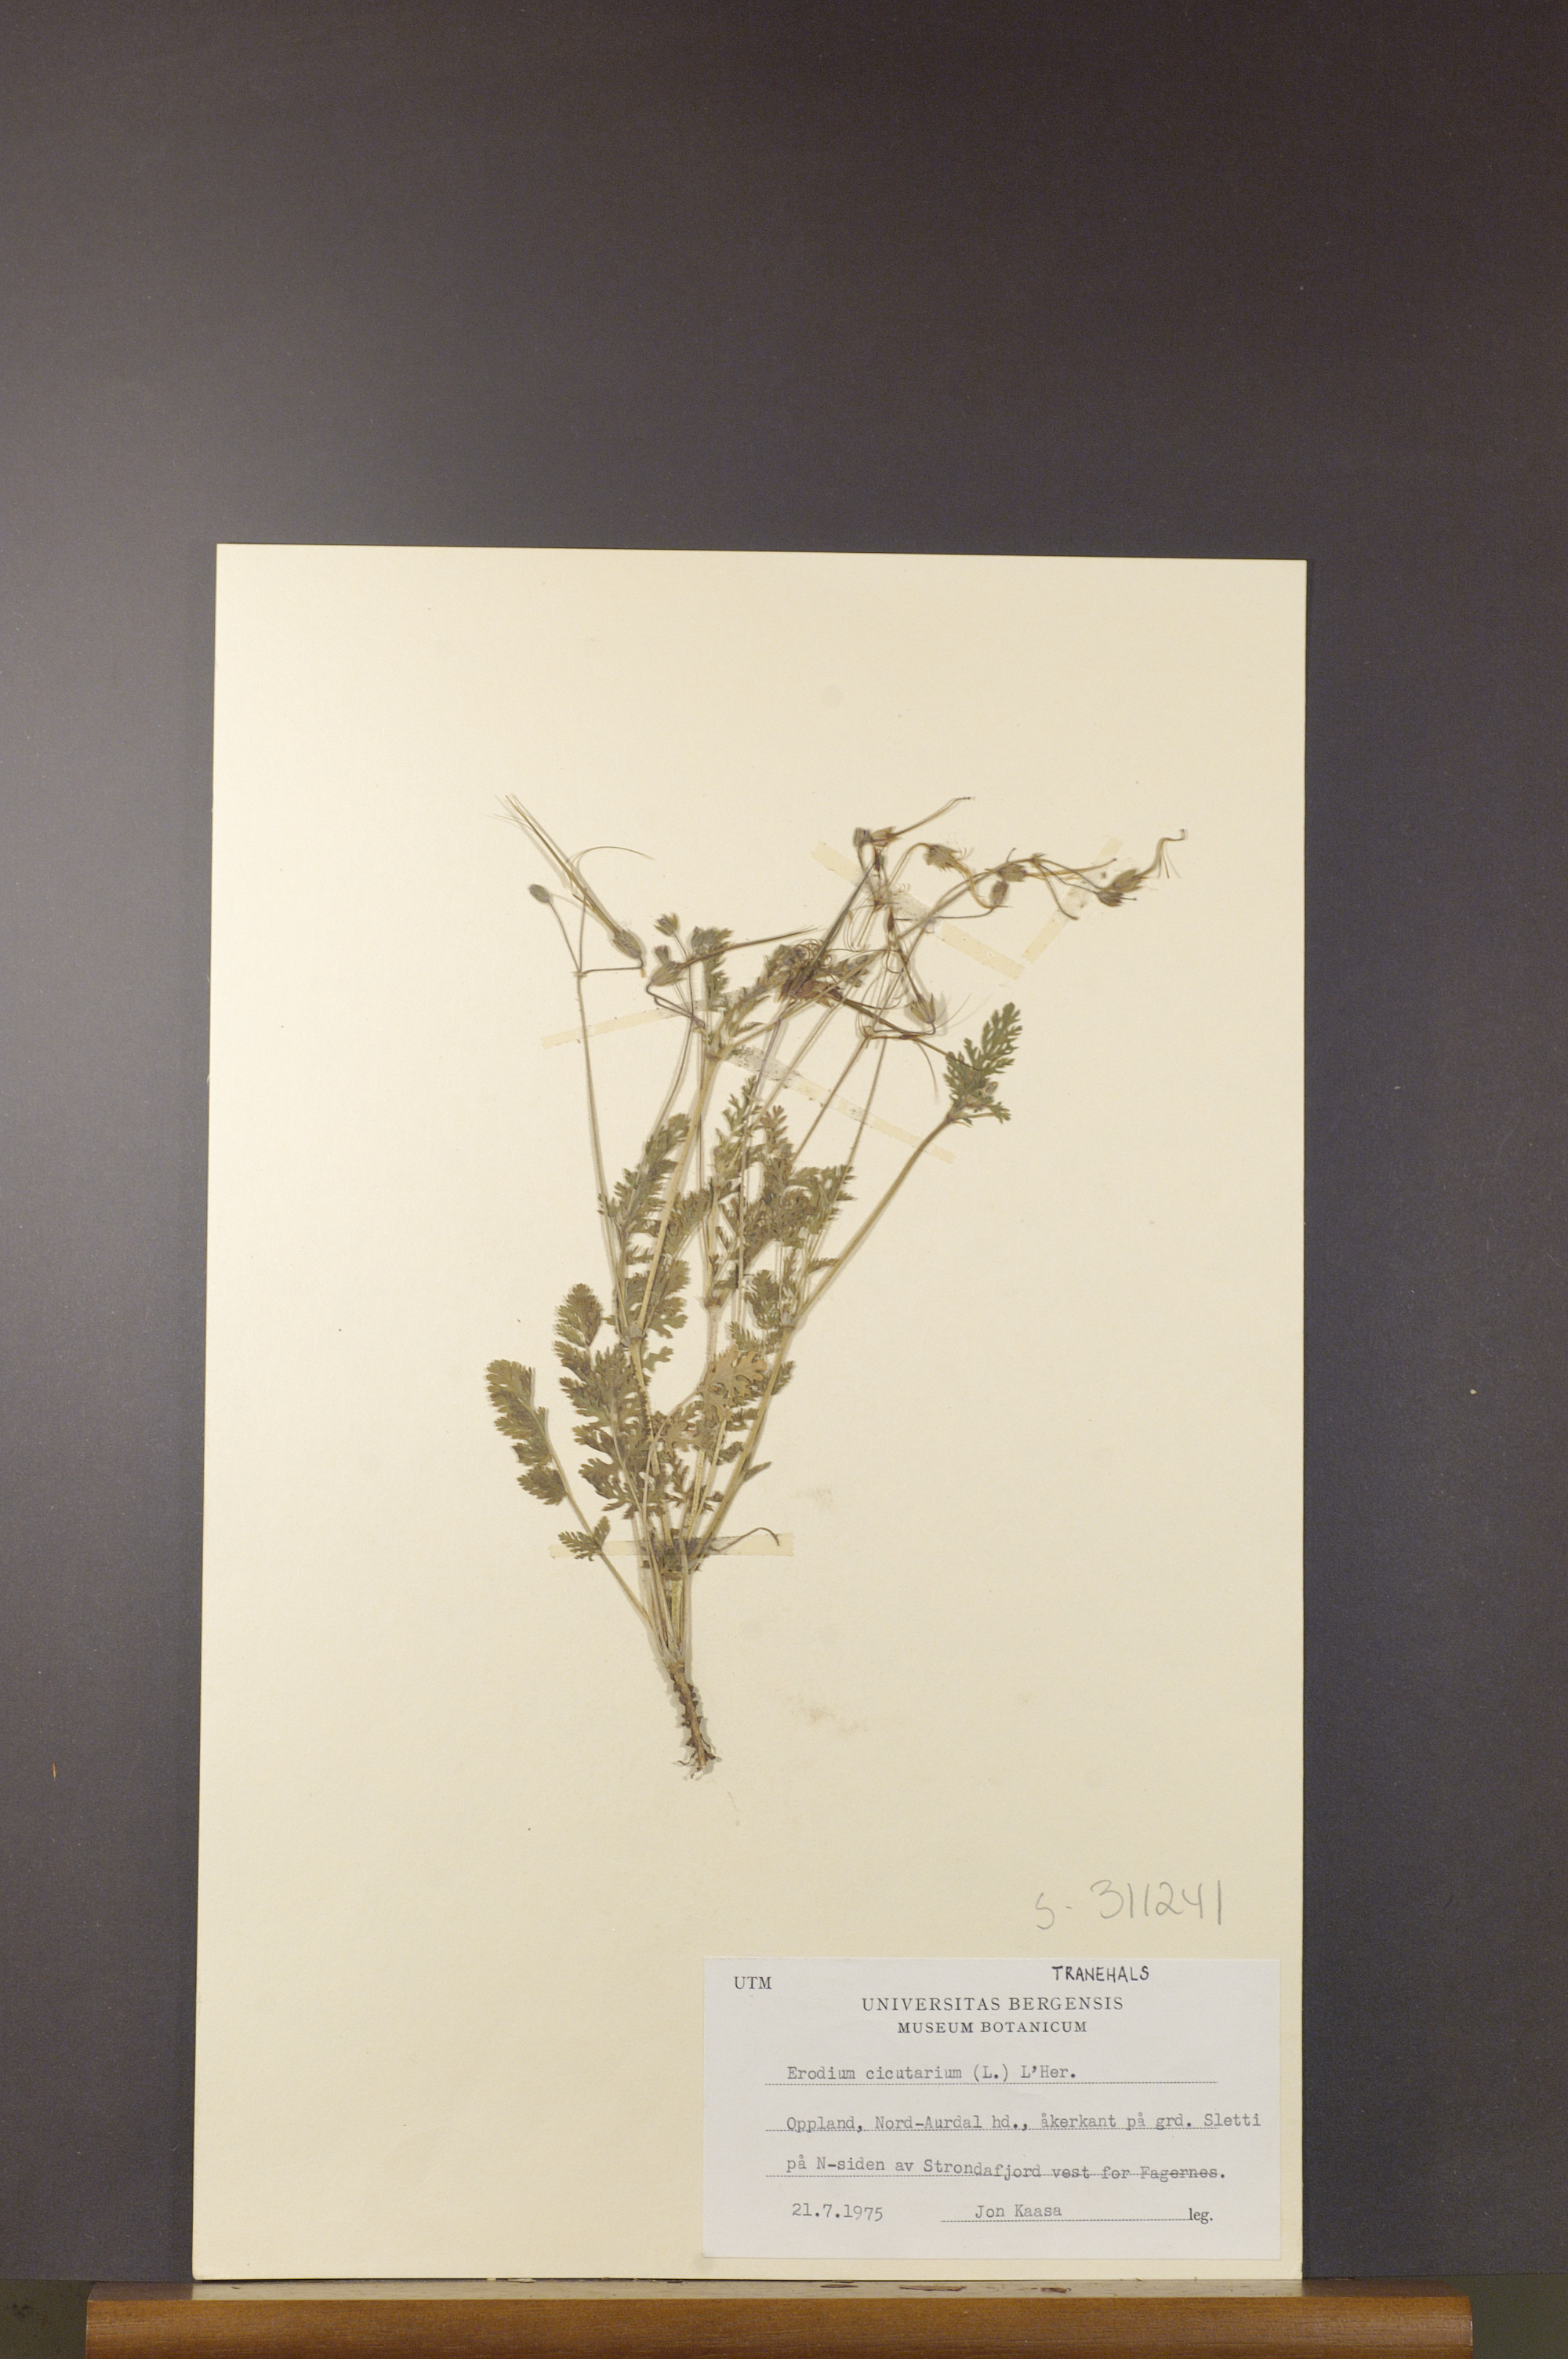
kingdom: Plantae
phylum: Tracheophyta
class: Magnoliopsida
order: Geraniales
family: Geraniaceae
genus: Erodium
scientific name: Erodium cicutarium
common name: Common stork's-bill
